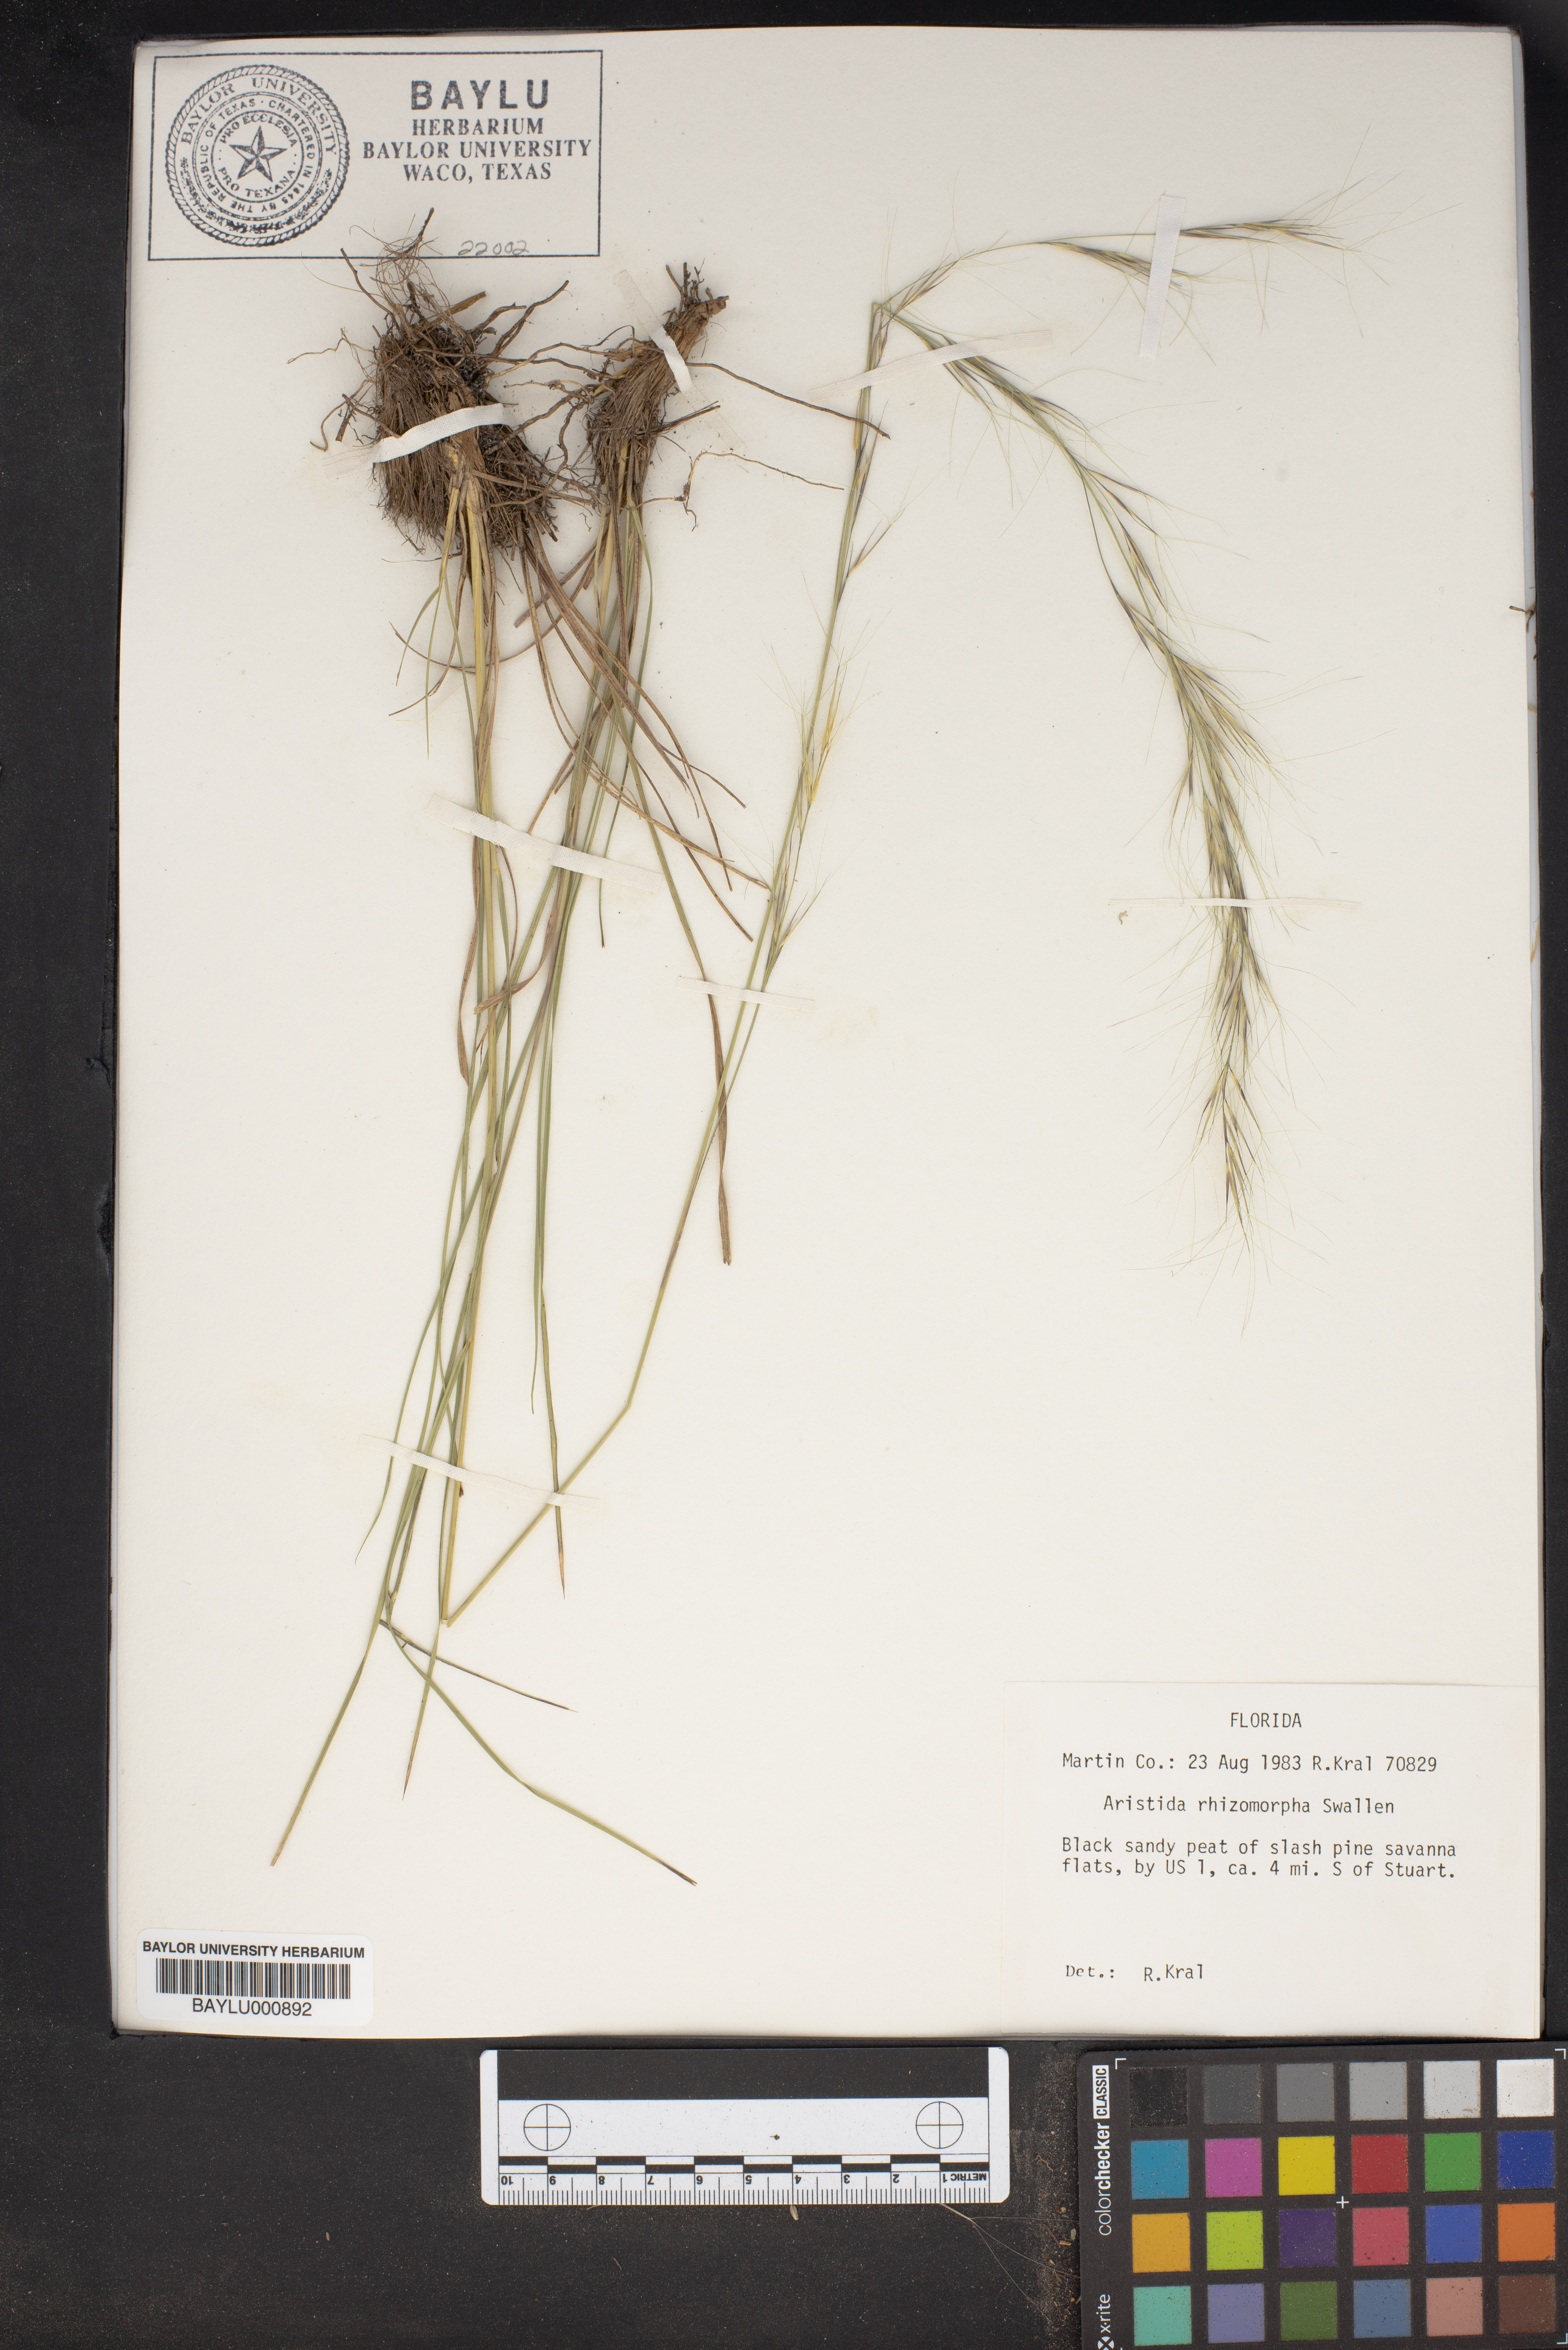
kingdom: Plantae
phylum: Tracheophyta
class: Liliopsida
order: Poales
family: Poaceae
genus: Aristida
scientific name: Aristida rhizomophora
